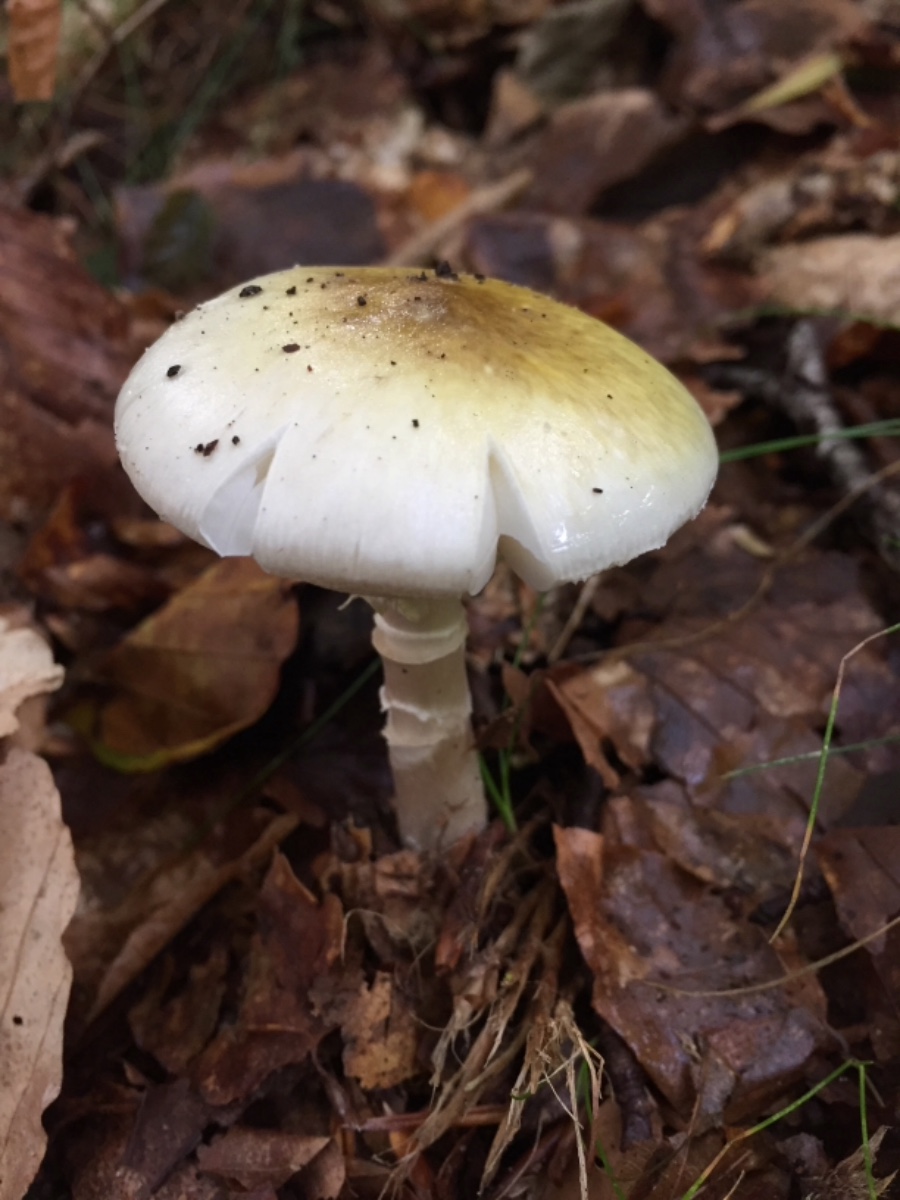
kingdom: Fungi
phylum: Basidiomycota
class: Agaricomycetes
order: Agaricales
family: Amanitaceae
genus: Amanita
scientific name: Amanita phalloides
